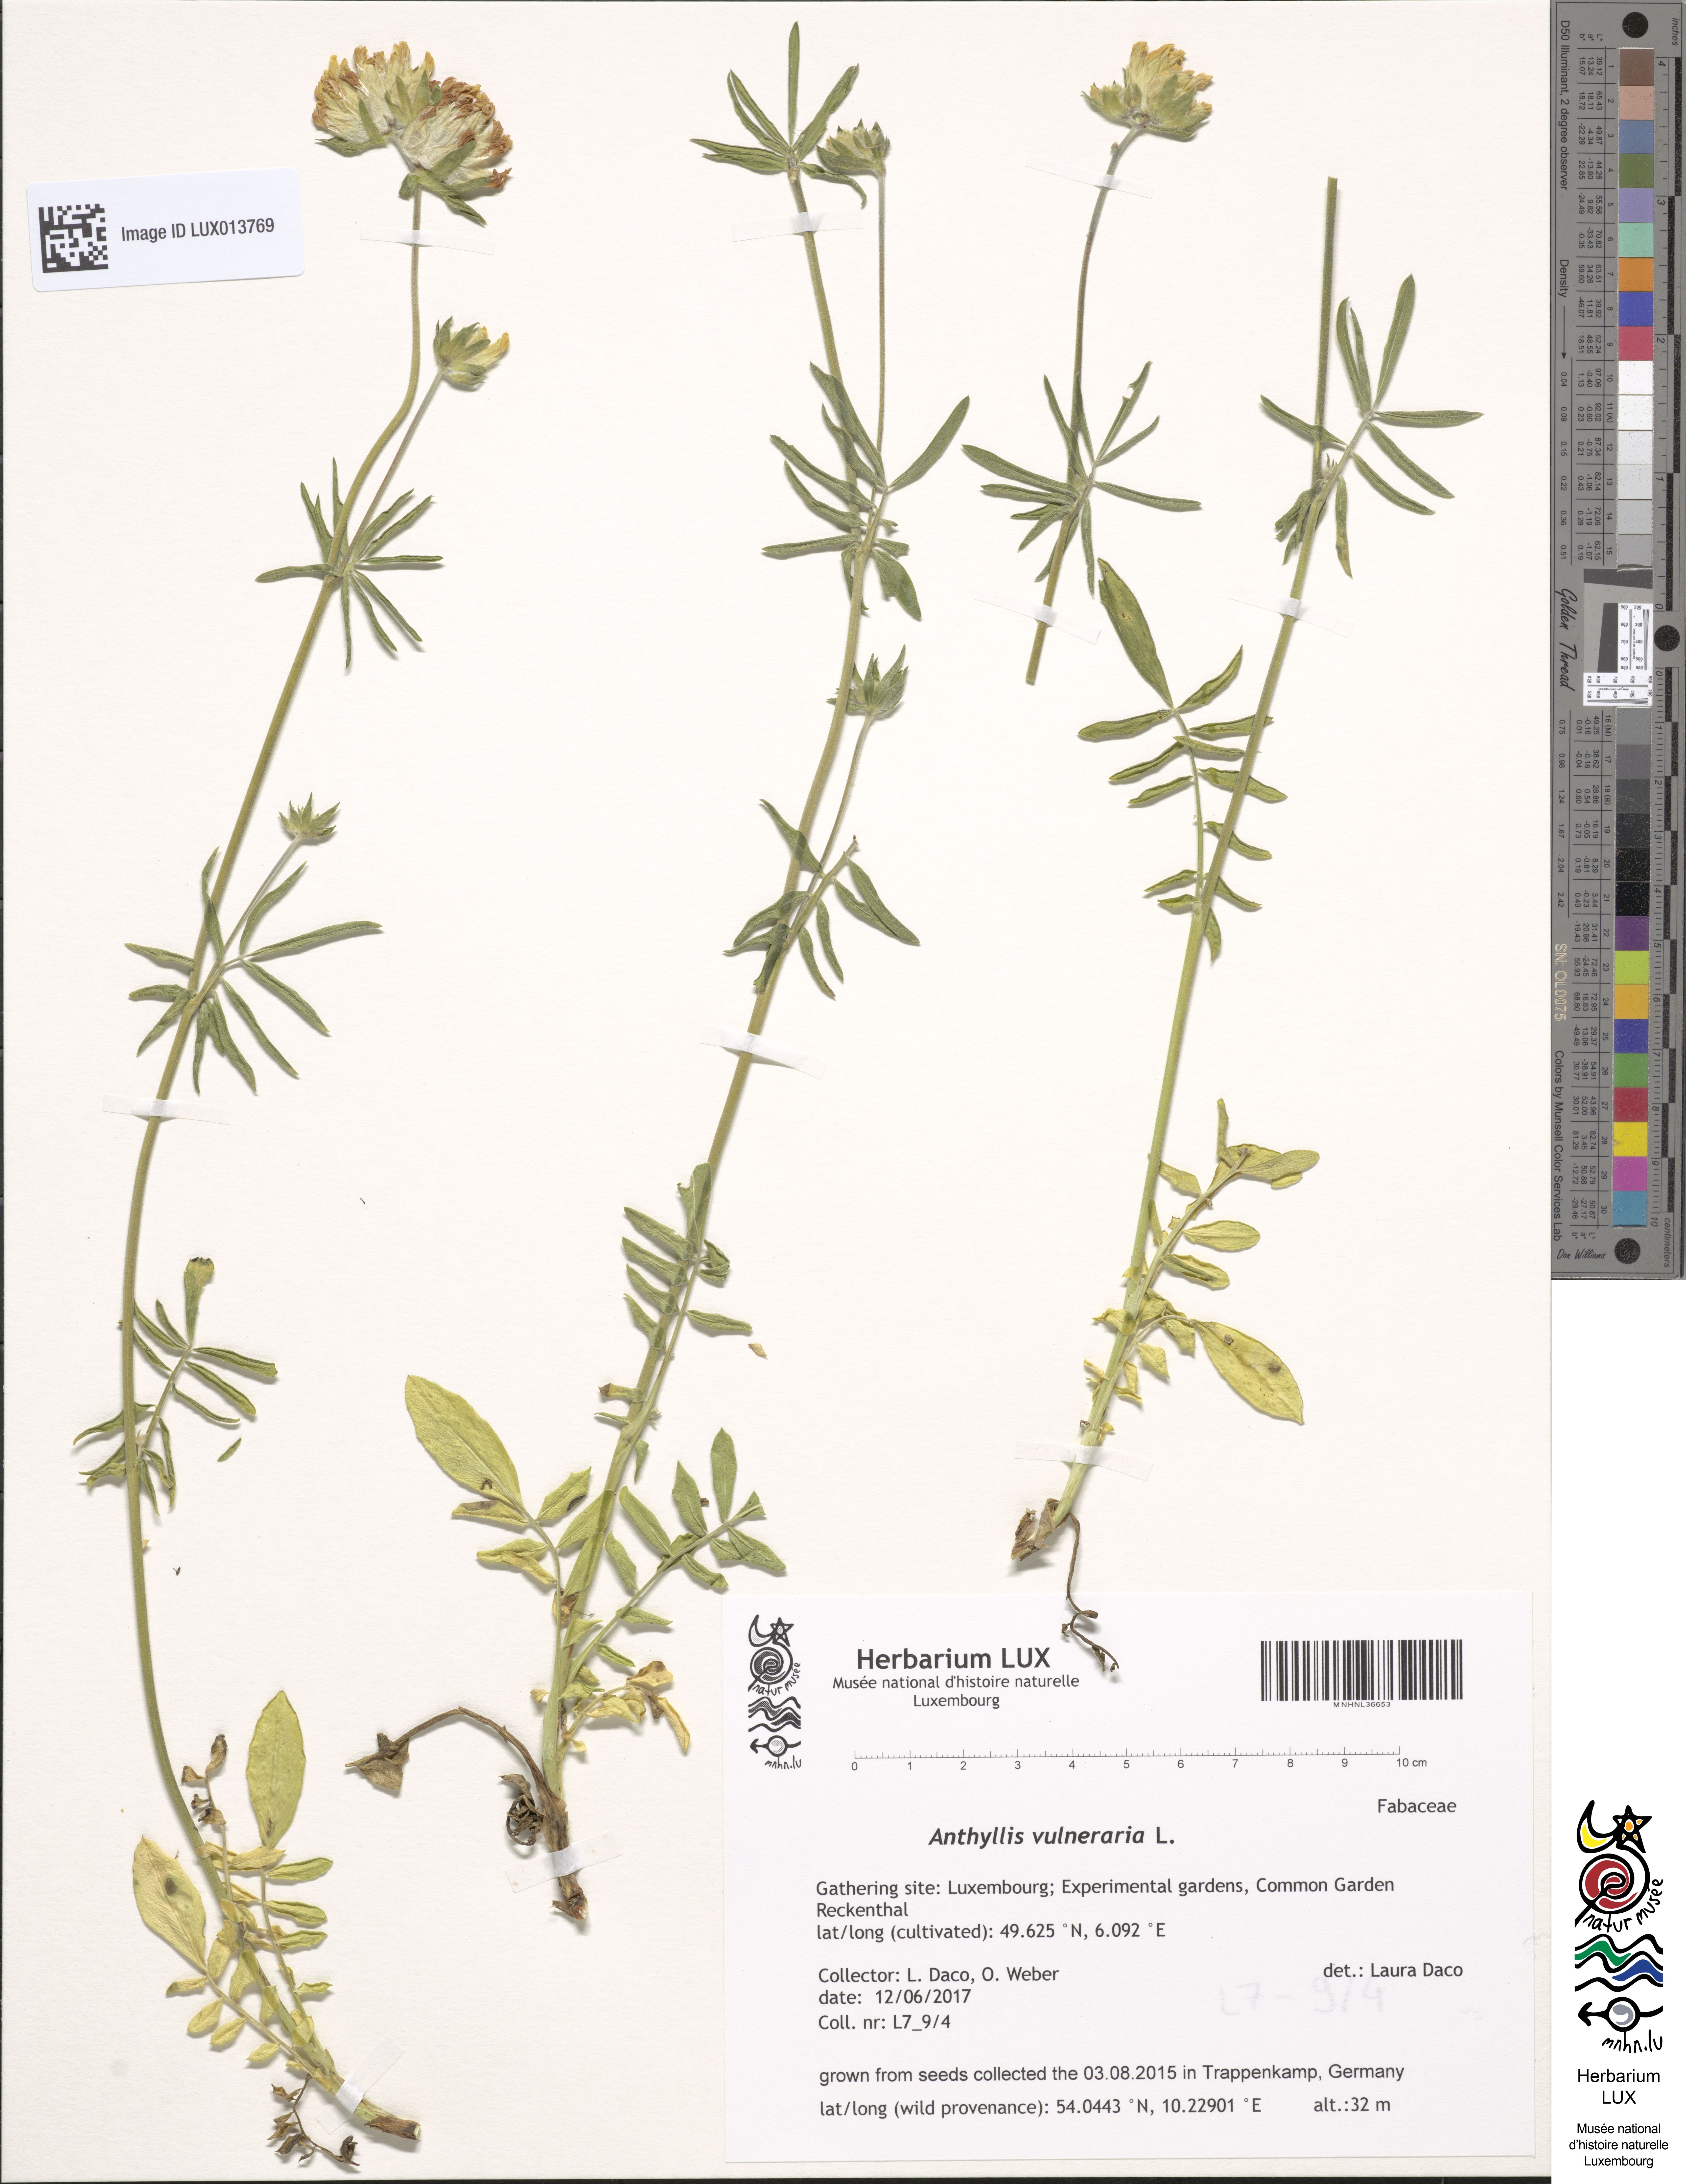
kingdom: Plantae
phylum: Tracheophyta
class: Magnoliopsida
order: Fabales
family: Fabaceae
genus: Anthyllis
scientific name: Anthyllis vulneraria
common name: Kidney vetch
